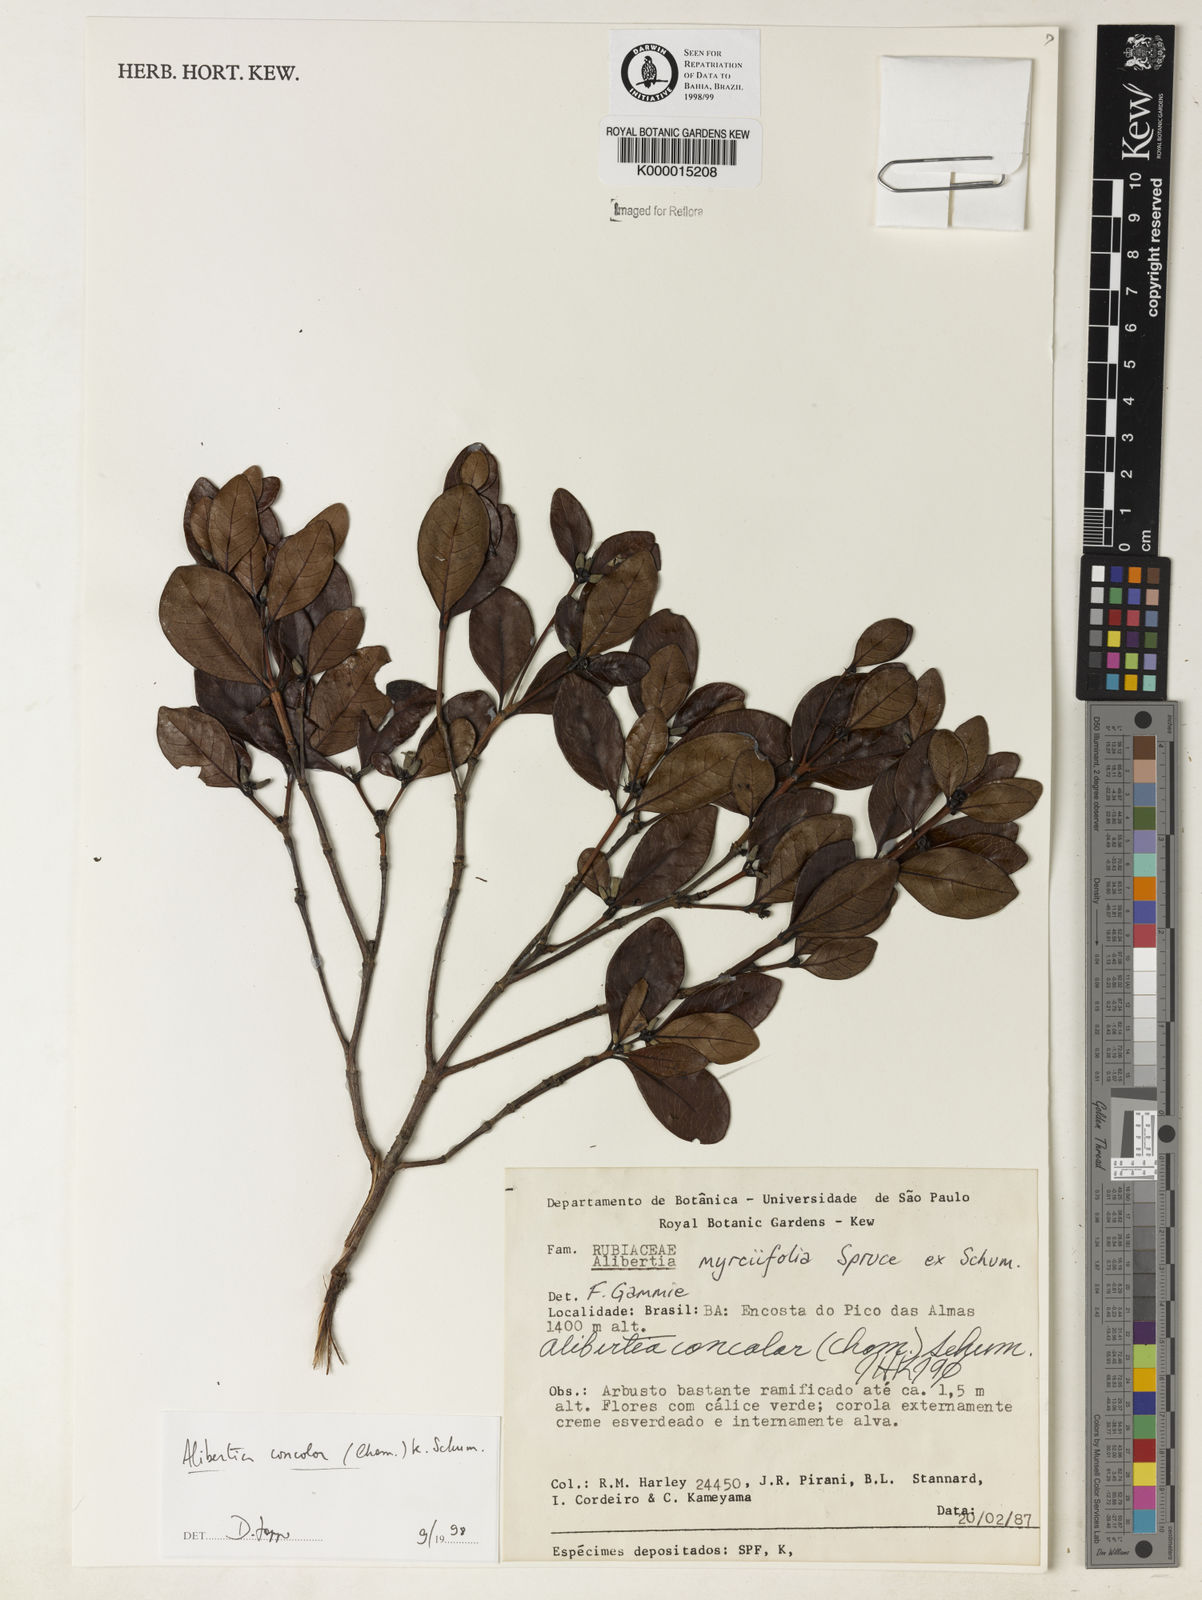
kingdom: Plantae
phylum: Tracheophyta
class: Magnoliopsida
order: Gentianales
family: Rubiaceae
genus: Cordiera
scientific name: Cordiera concolor
